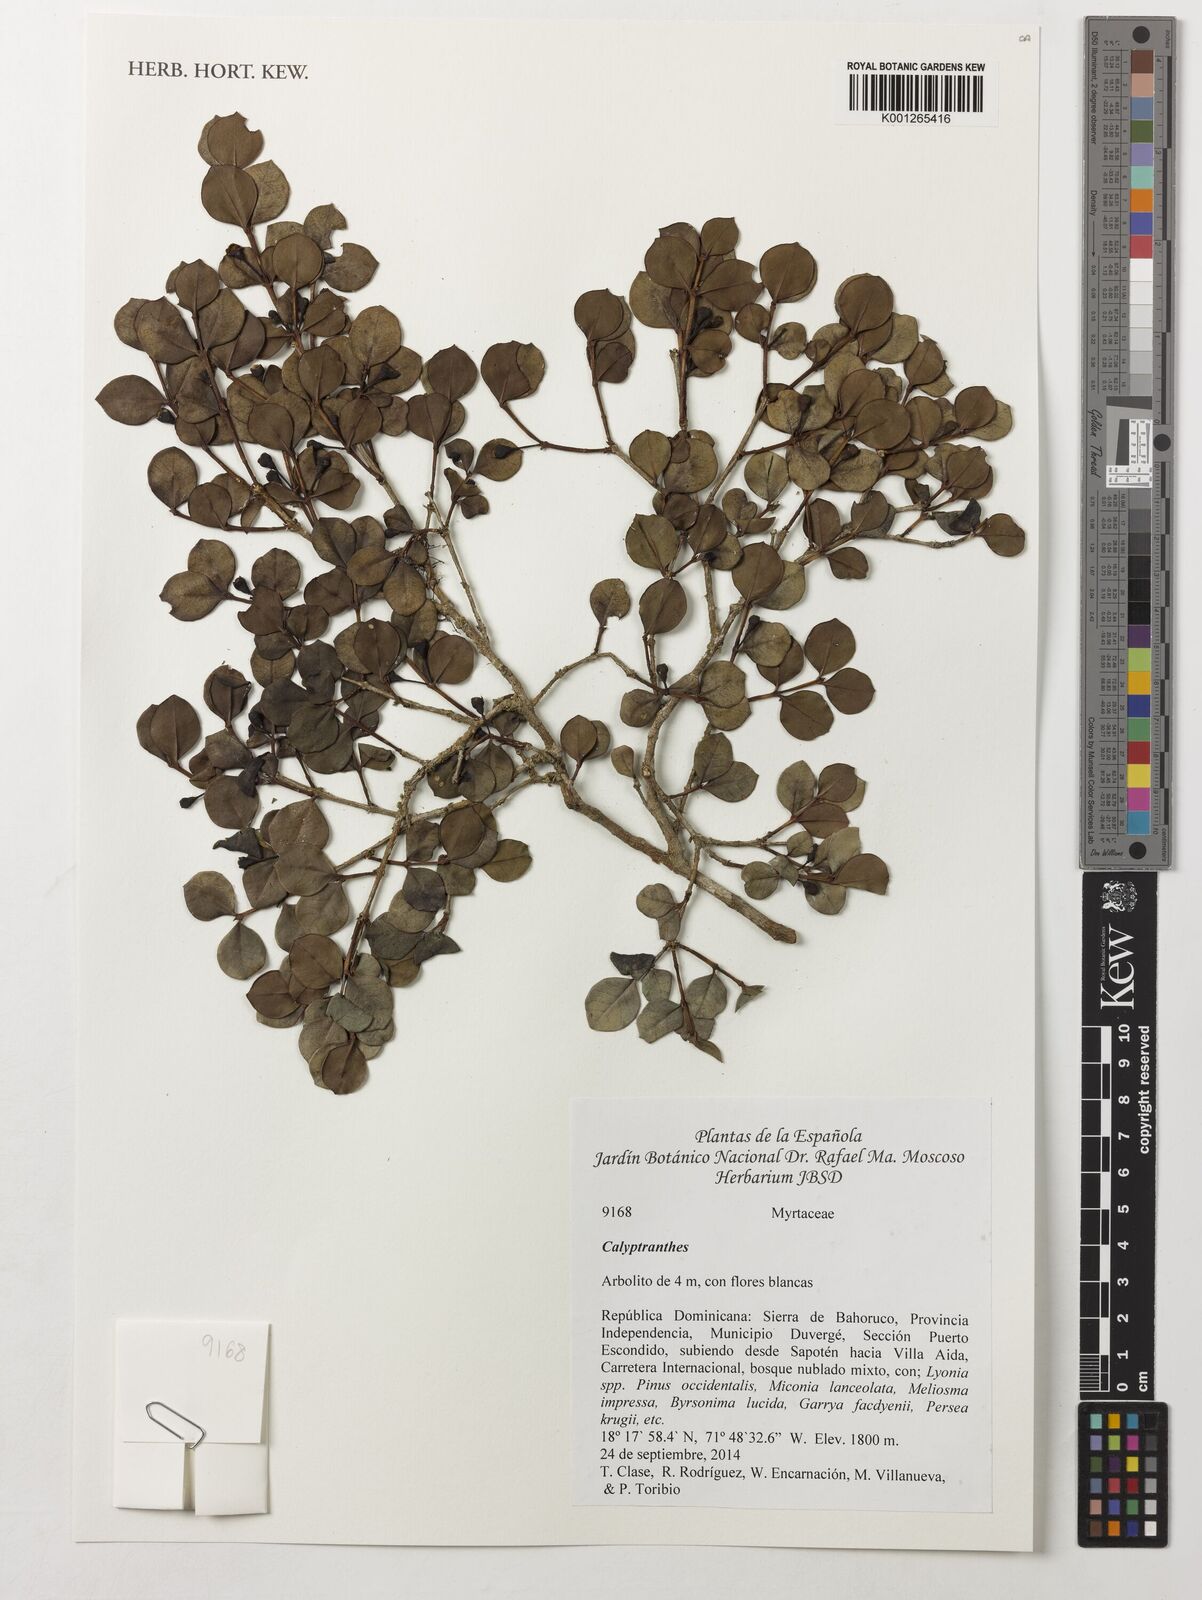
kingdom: Plantae
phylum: Tracheophyta
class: Magnoliopsida
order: Myrtales
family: Myrtaceae
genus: Myrcia
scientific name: Myrcia
